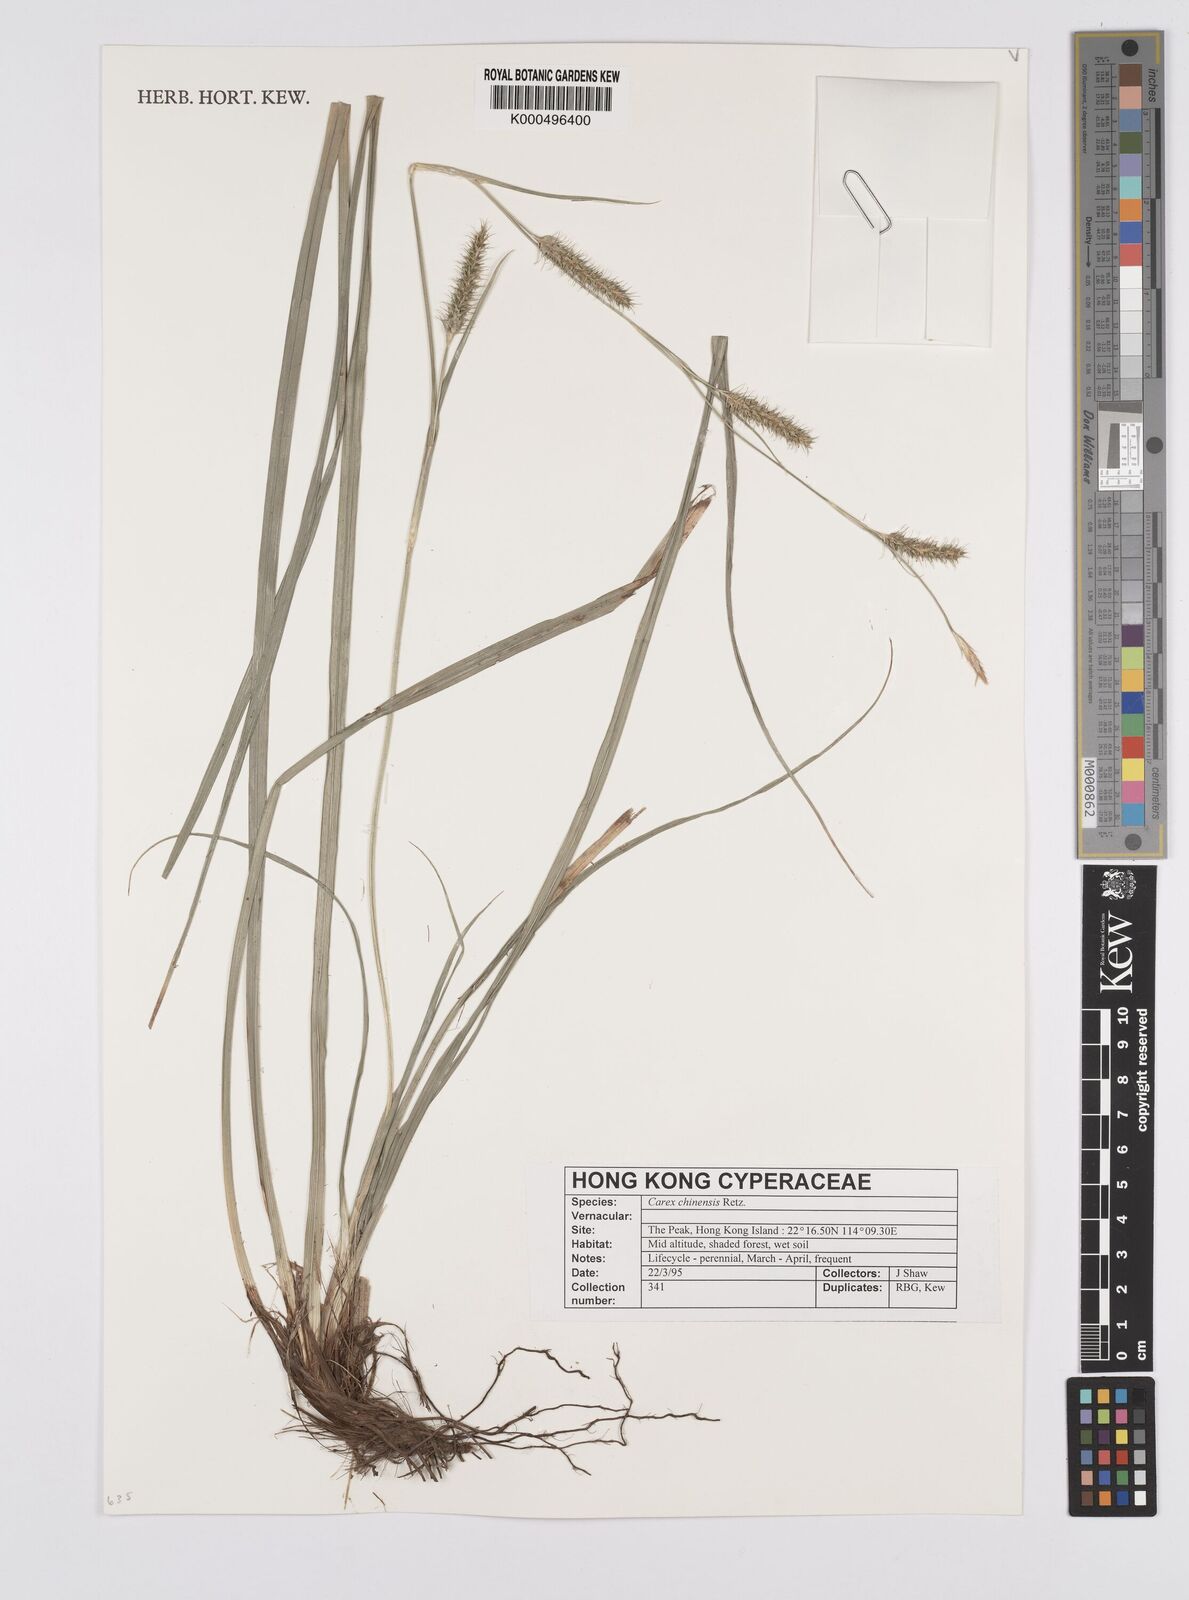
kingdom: Plantae
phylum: Tracheophyta
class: Liliopsida
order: Poales
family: Cyperaceae
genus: Carex
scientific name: Carex chinensis
